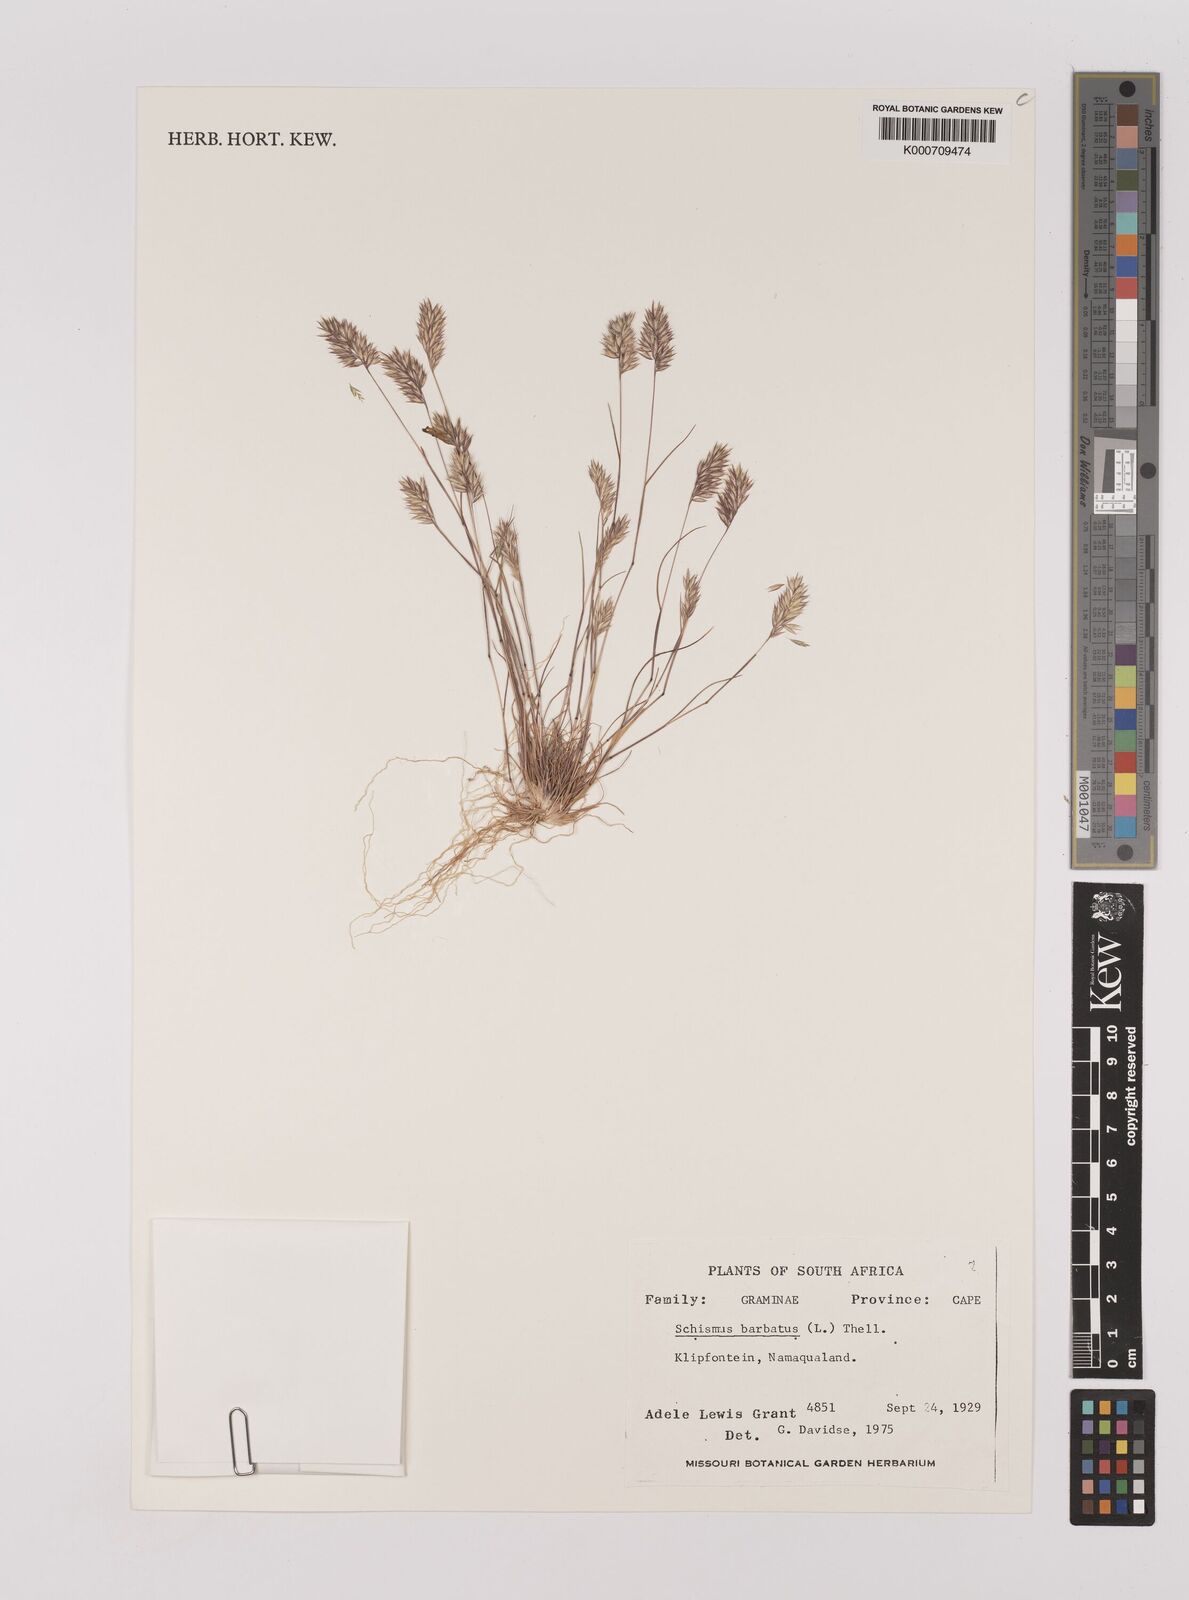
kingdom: Plantae
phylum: Tracheophyta
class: Liliopsida
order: Poales
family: Poaceae
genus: Schismus
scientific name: Schismus barbatus
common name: Kelch-grass
